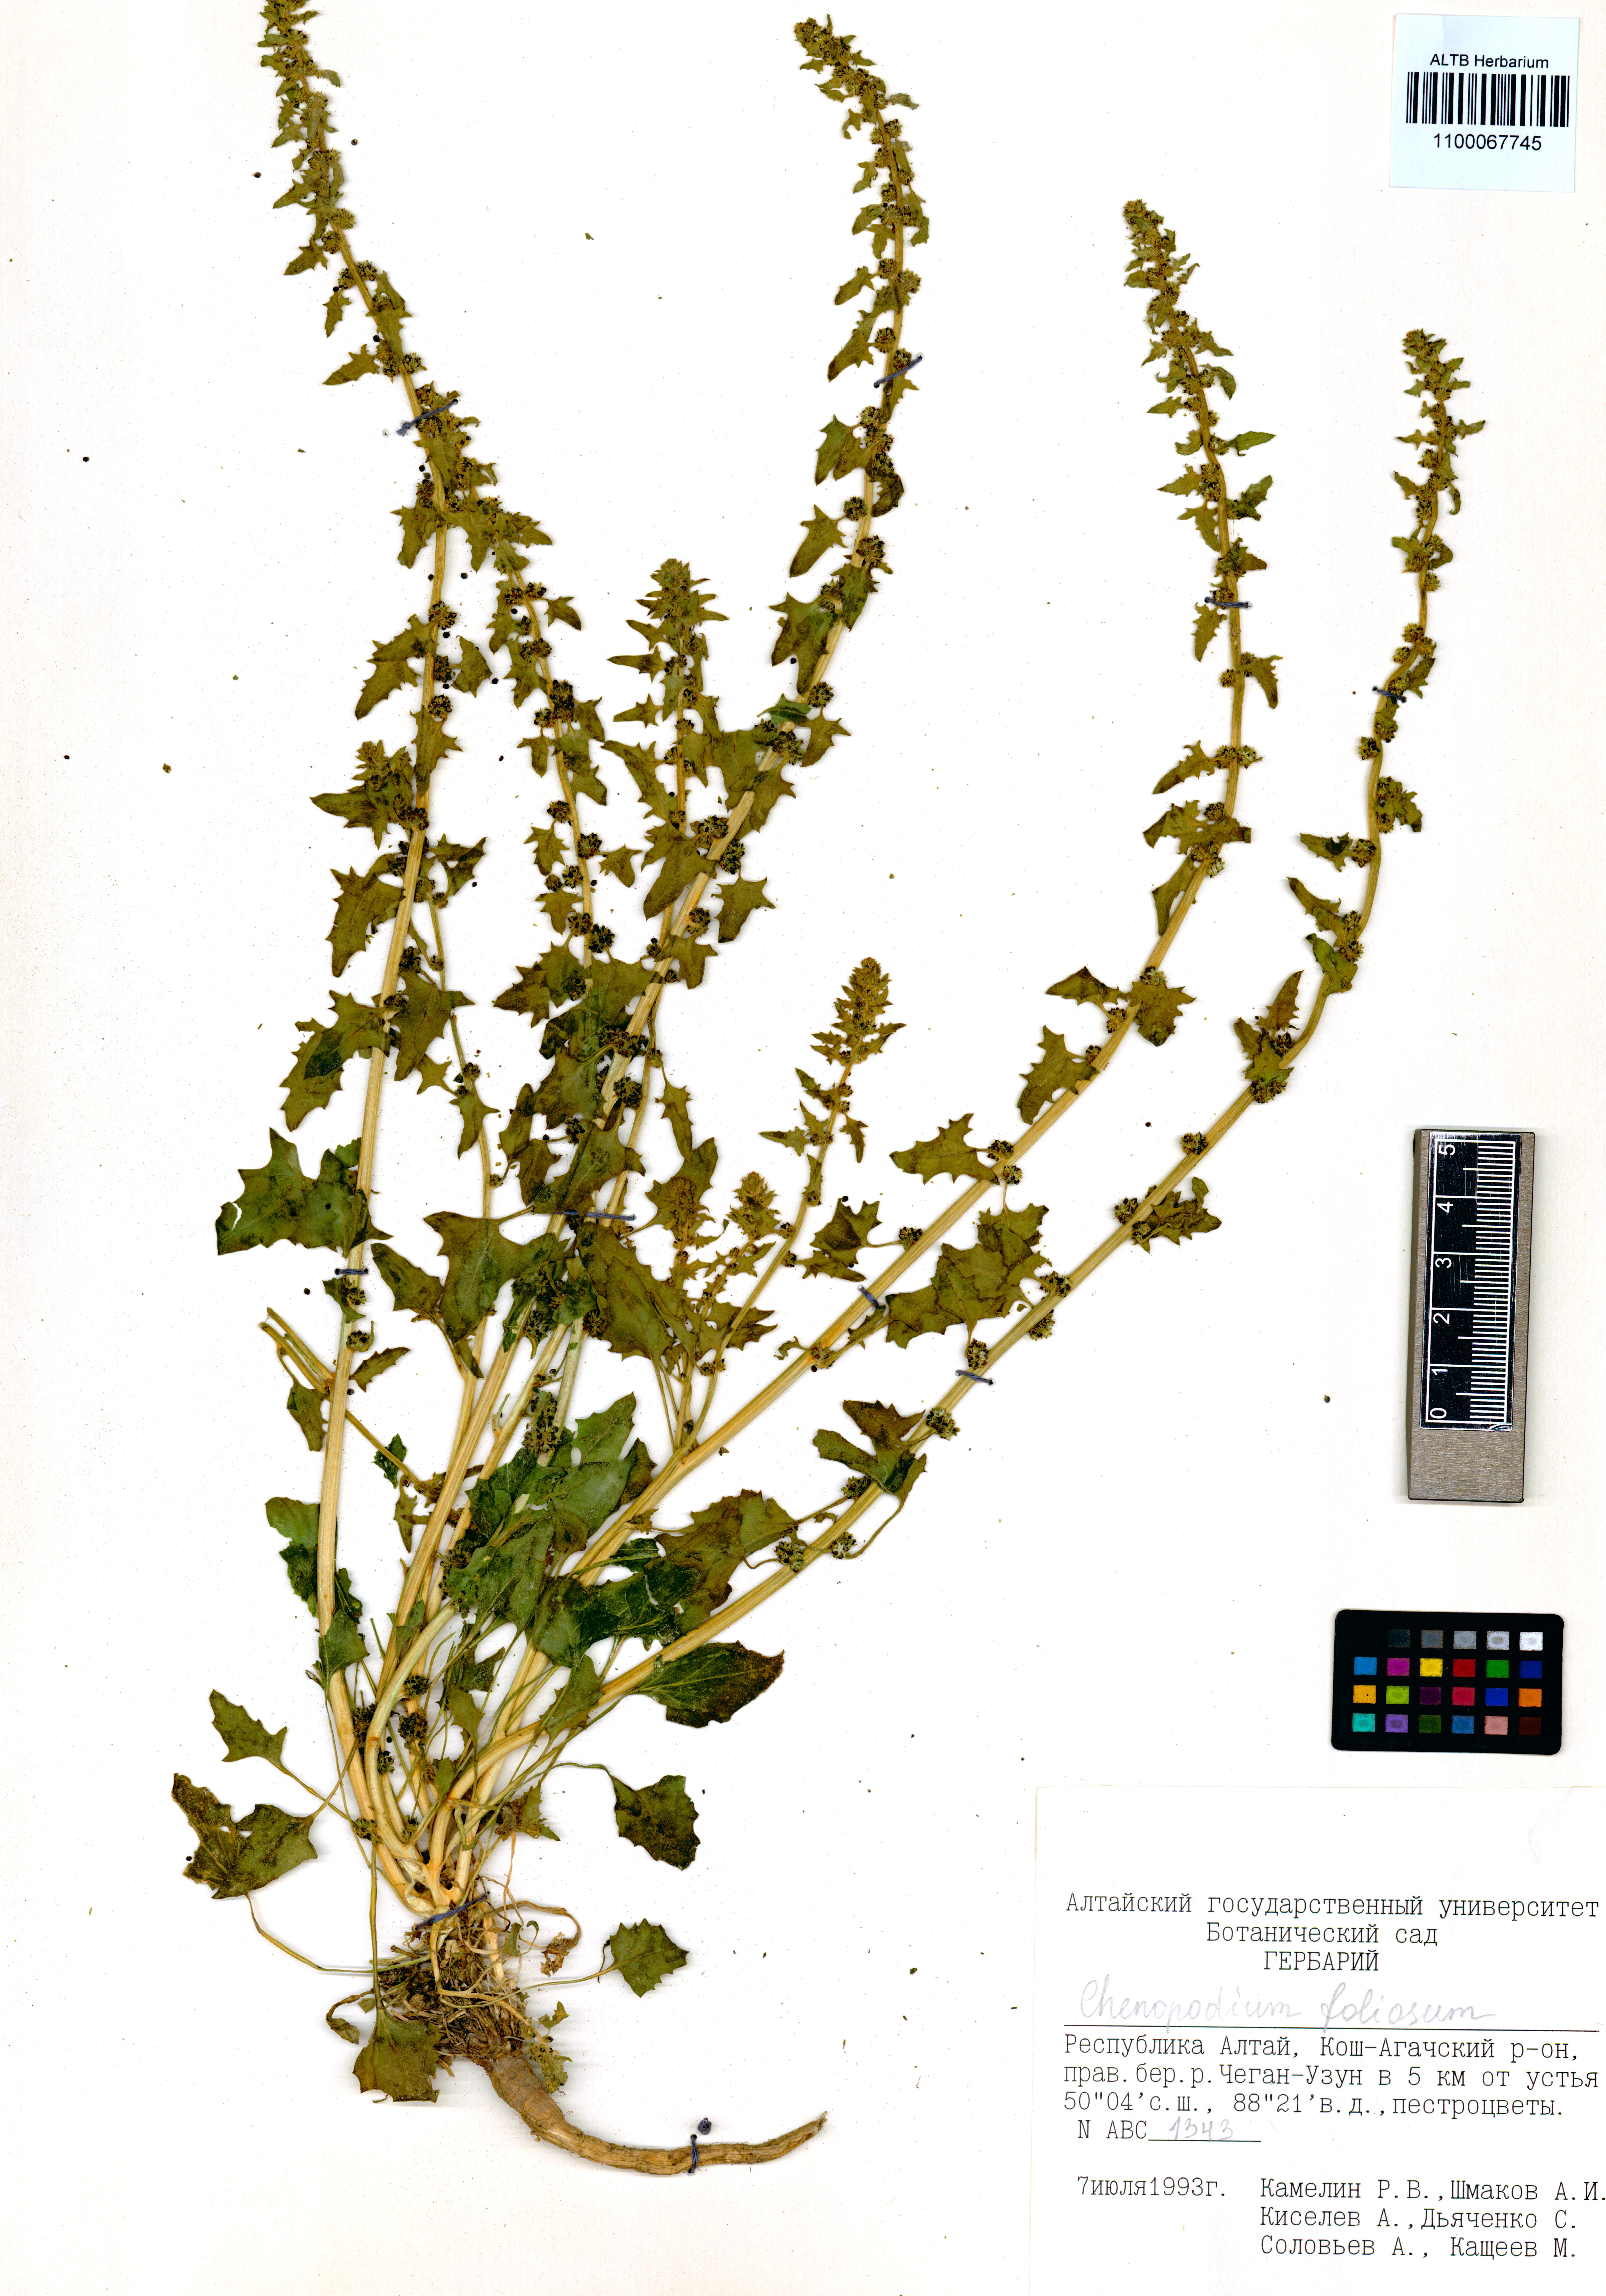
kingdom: Plantae
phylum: Tracheophyta
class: Magnoliopsida
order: Caryophyllales
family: Amaranthaceae
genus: Blitum
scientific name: Blitum virgatum
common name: Strawberry goosefoot
